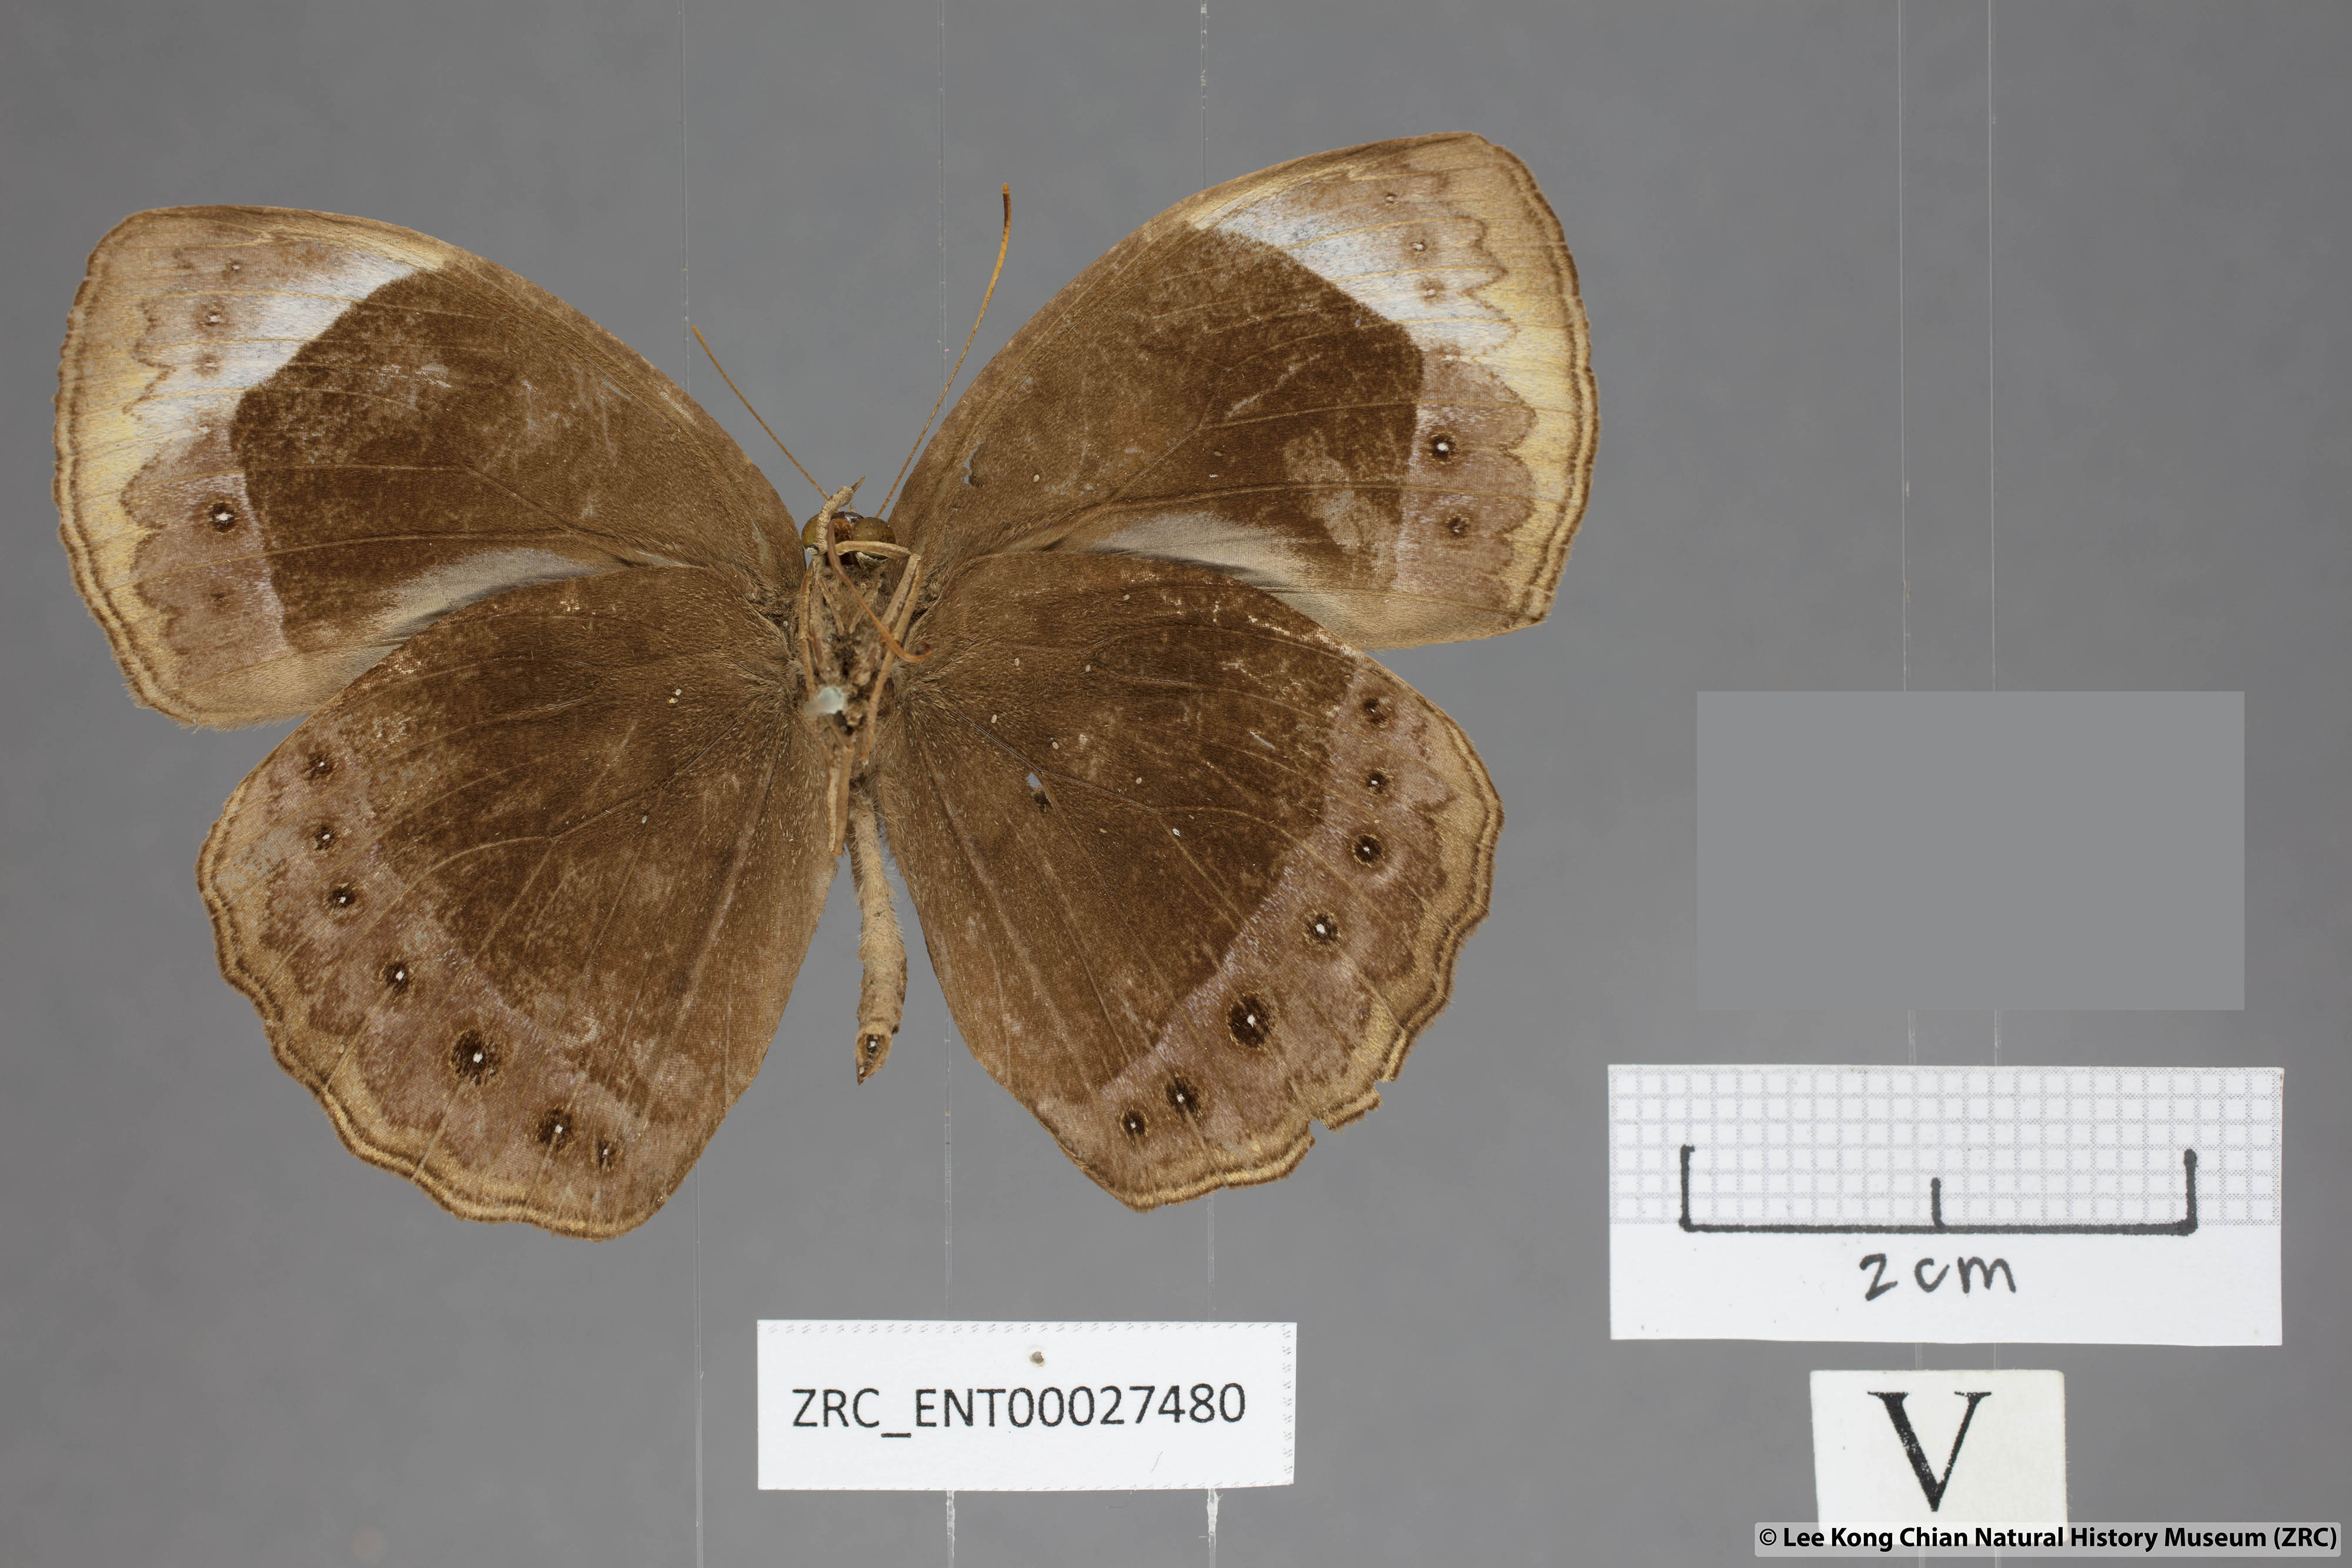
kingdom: Animalia
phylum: Arthropoda
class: Insecta
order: Lepidoptera
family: Nymphalidae
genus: Mycalesis
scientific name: Mycalesis anaxioides
